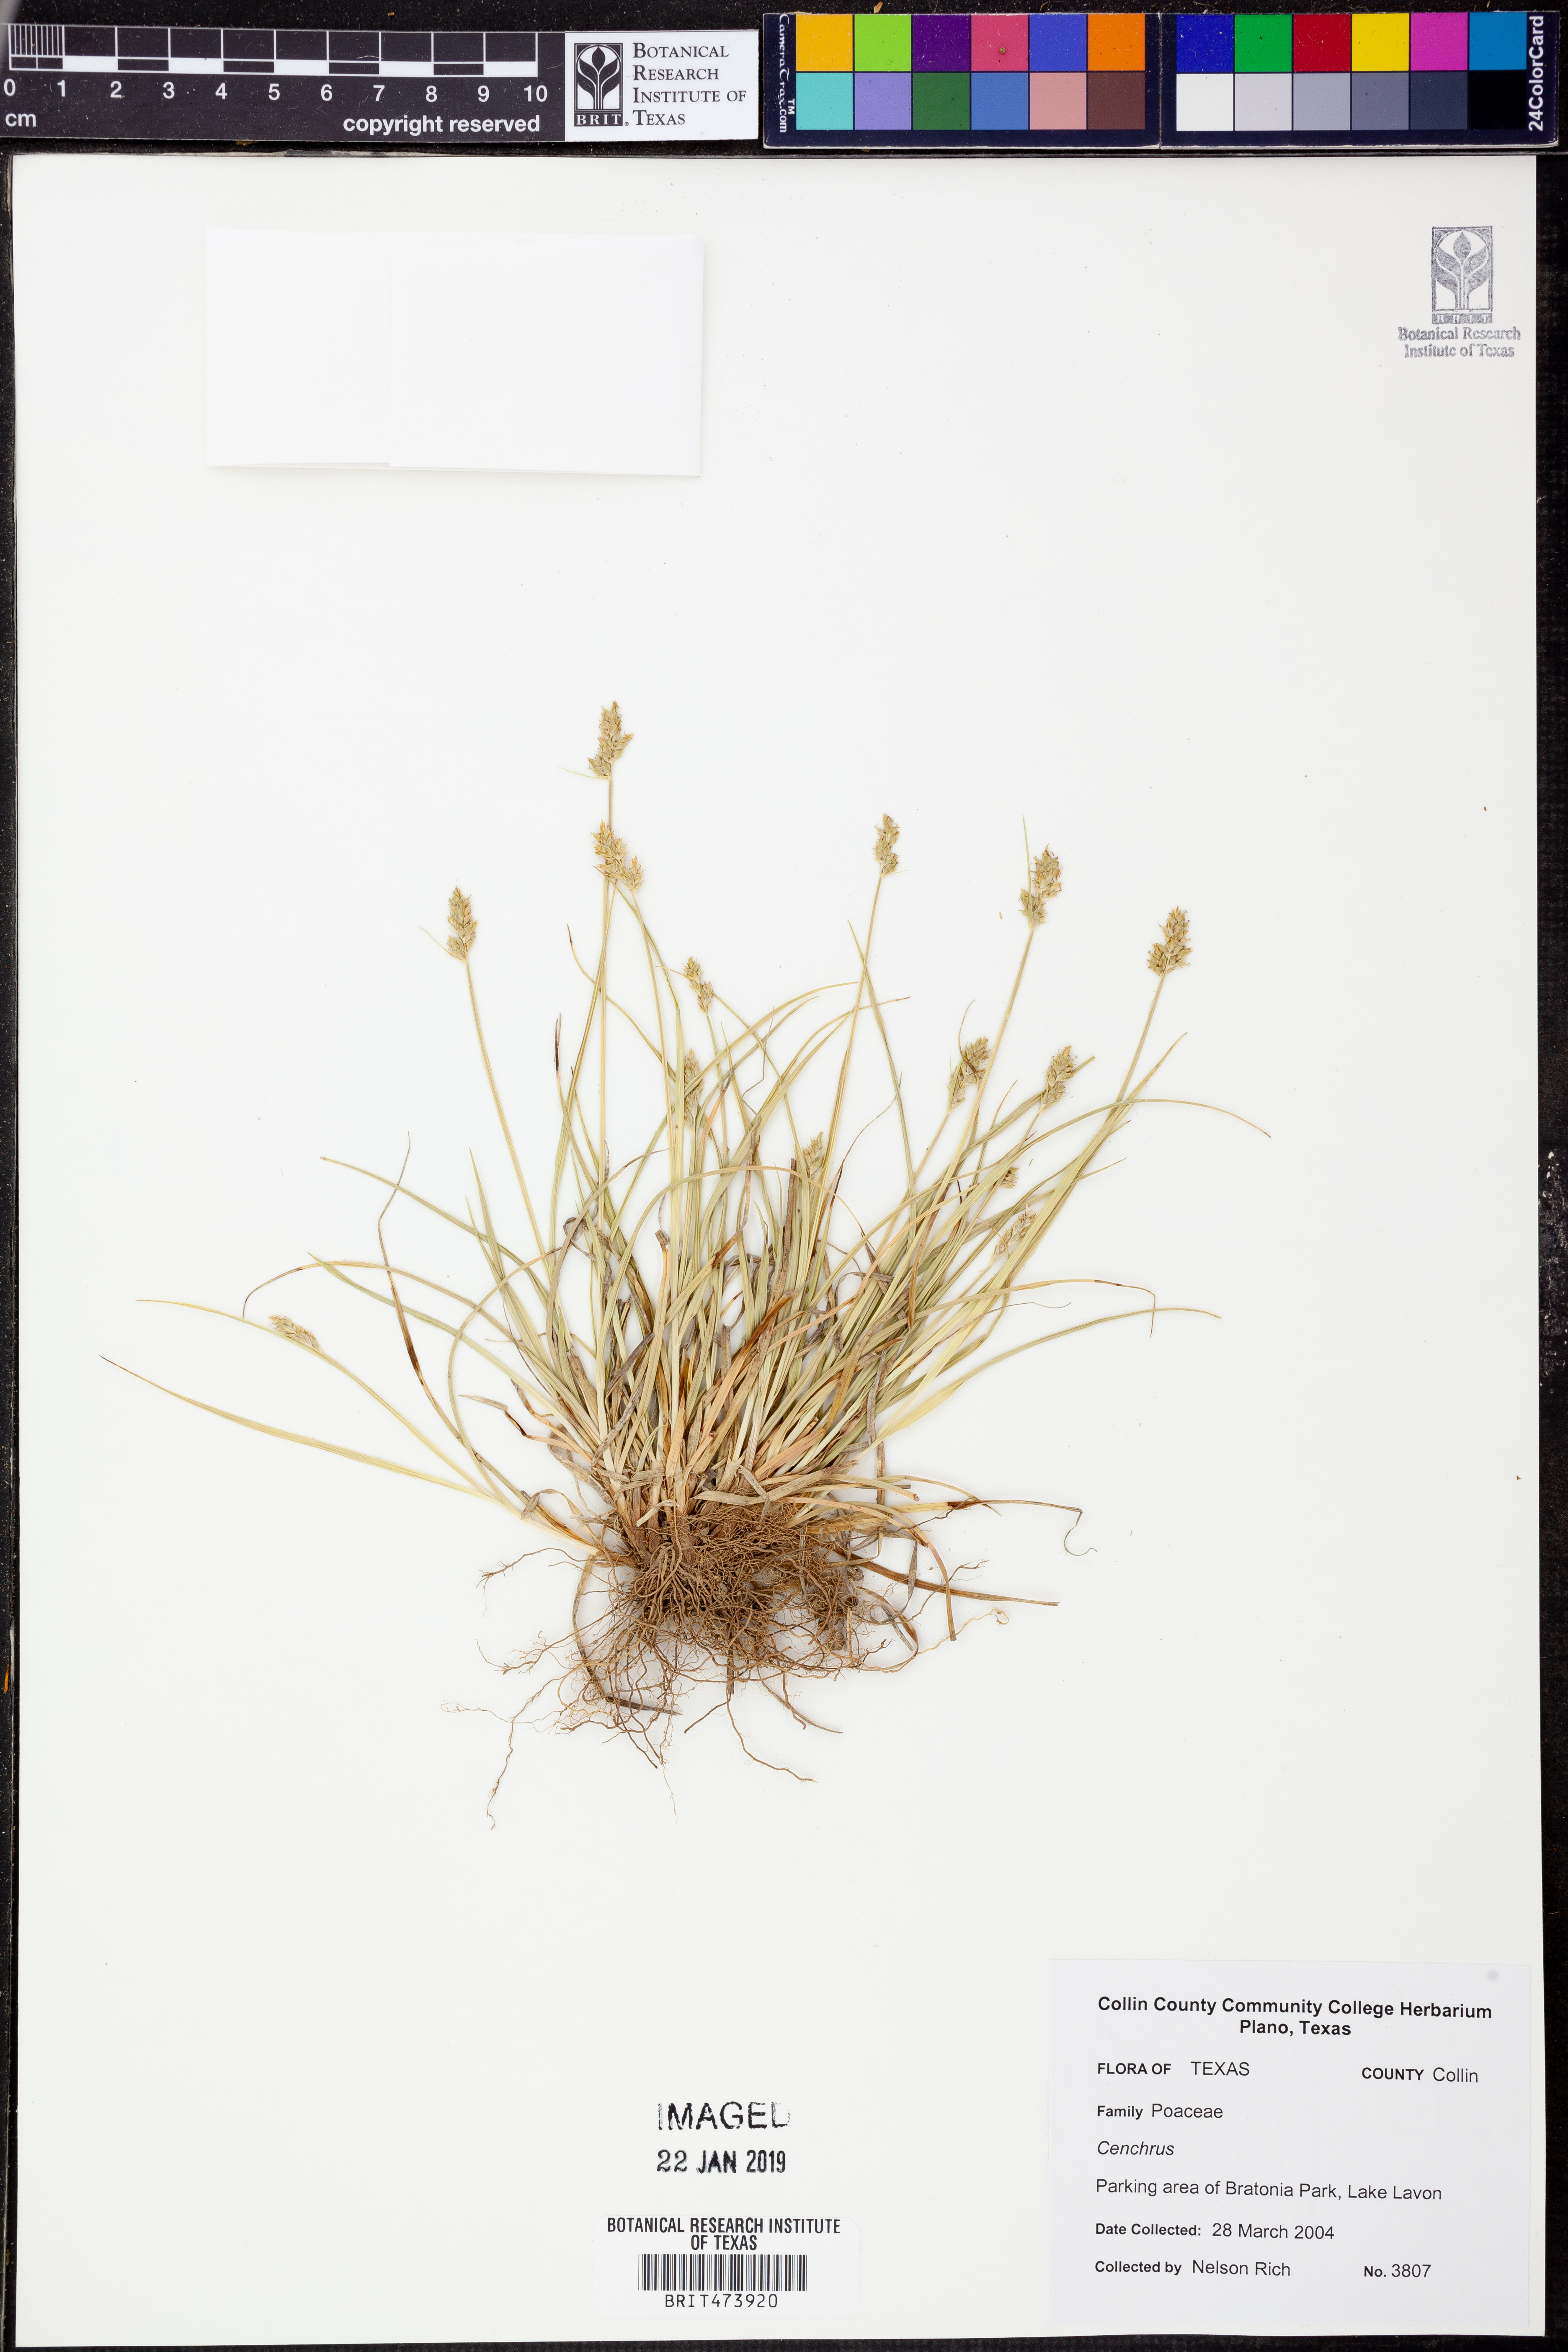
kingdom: Plantae
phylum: Tracheophyta
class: Liliopsida
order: Poales
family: Poaceae
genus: Cenchrus
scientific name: Cenchrus
